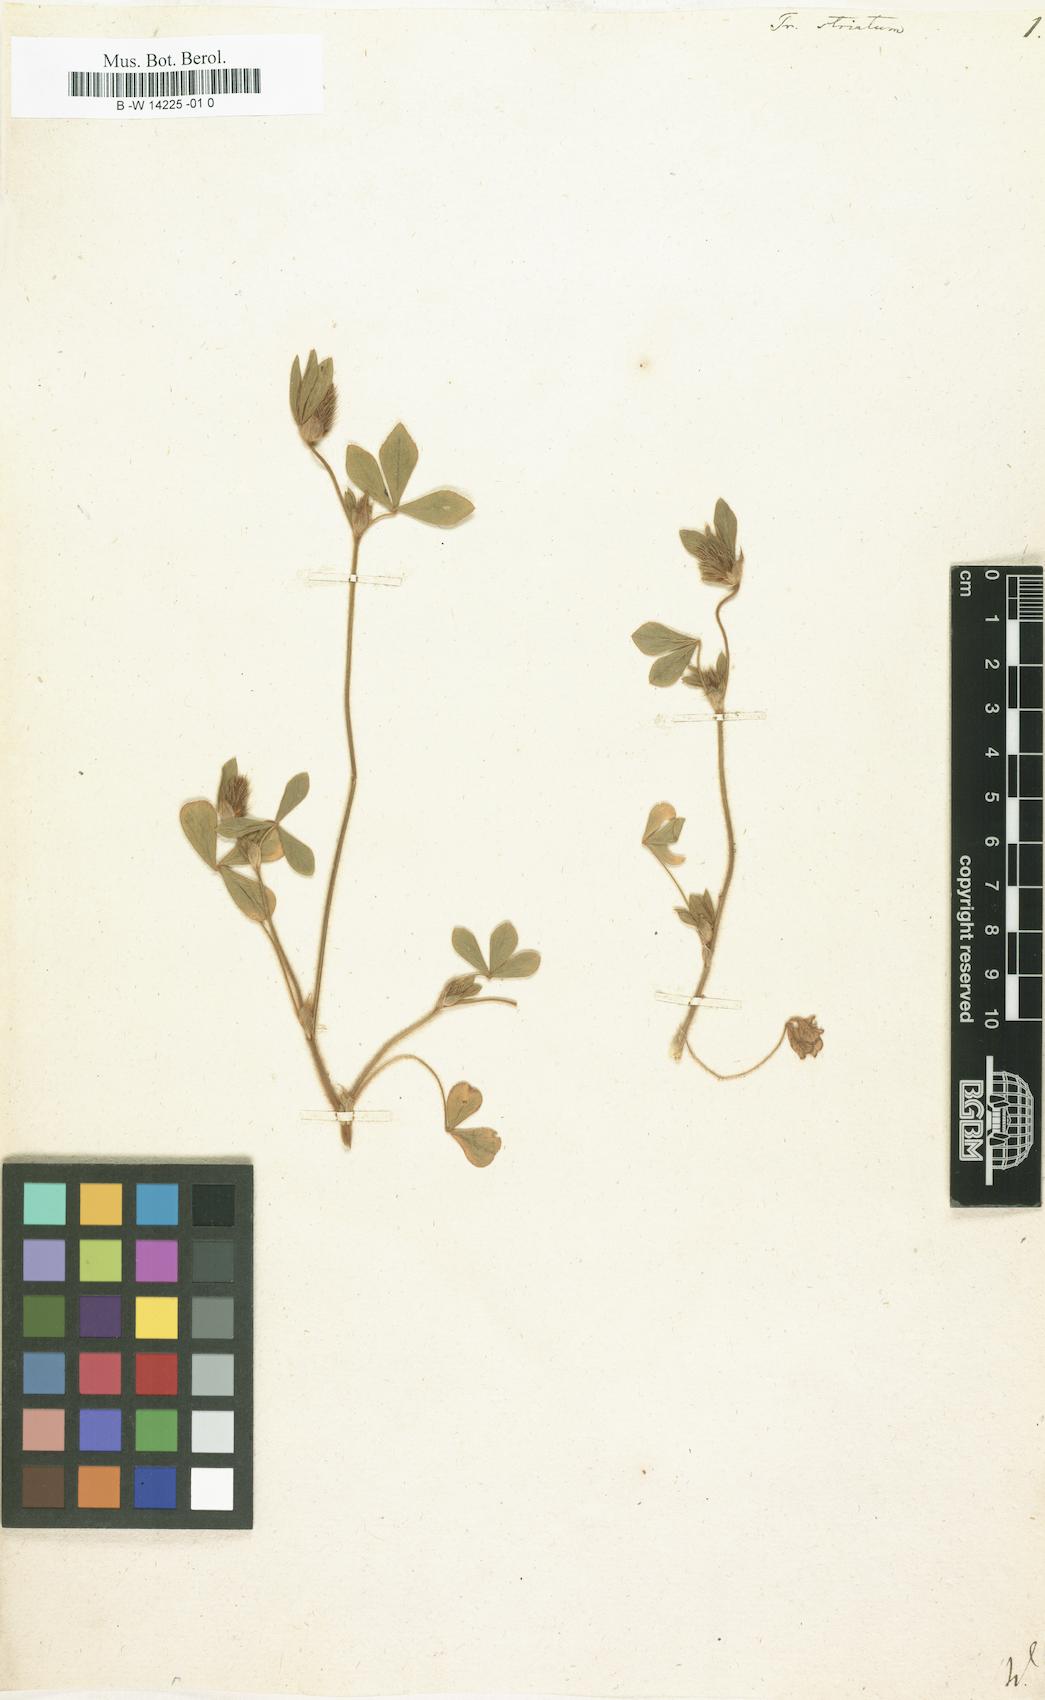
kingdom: Plantae
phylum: Tracheophyta
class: Magnoliopsida
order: Fabales
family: Fabaceae
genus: Trifolium
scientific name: Trifolium striatum
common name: Knotted clover
